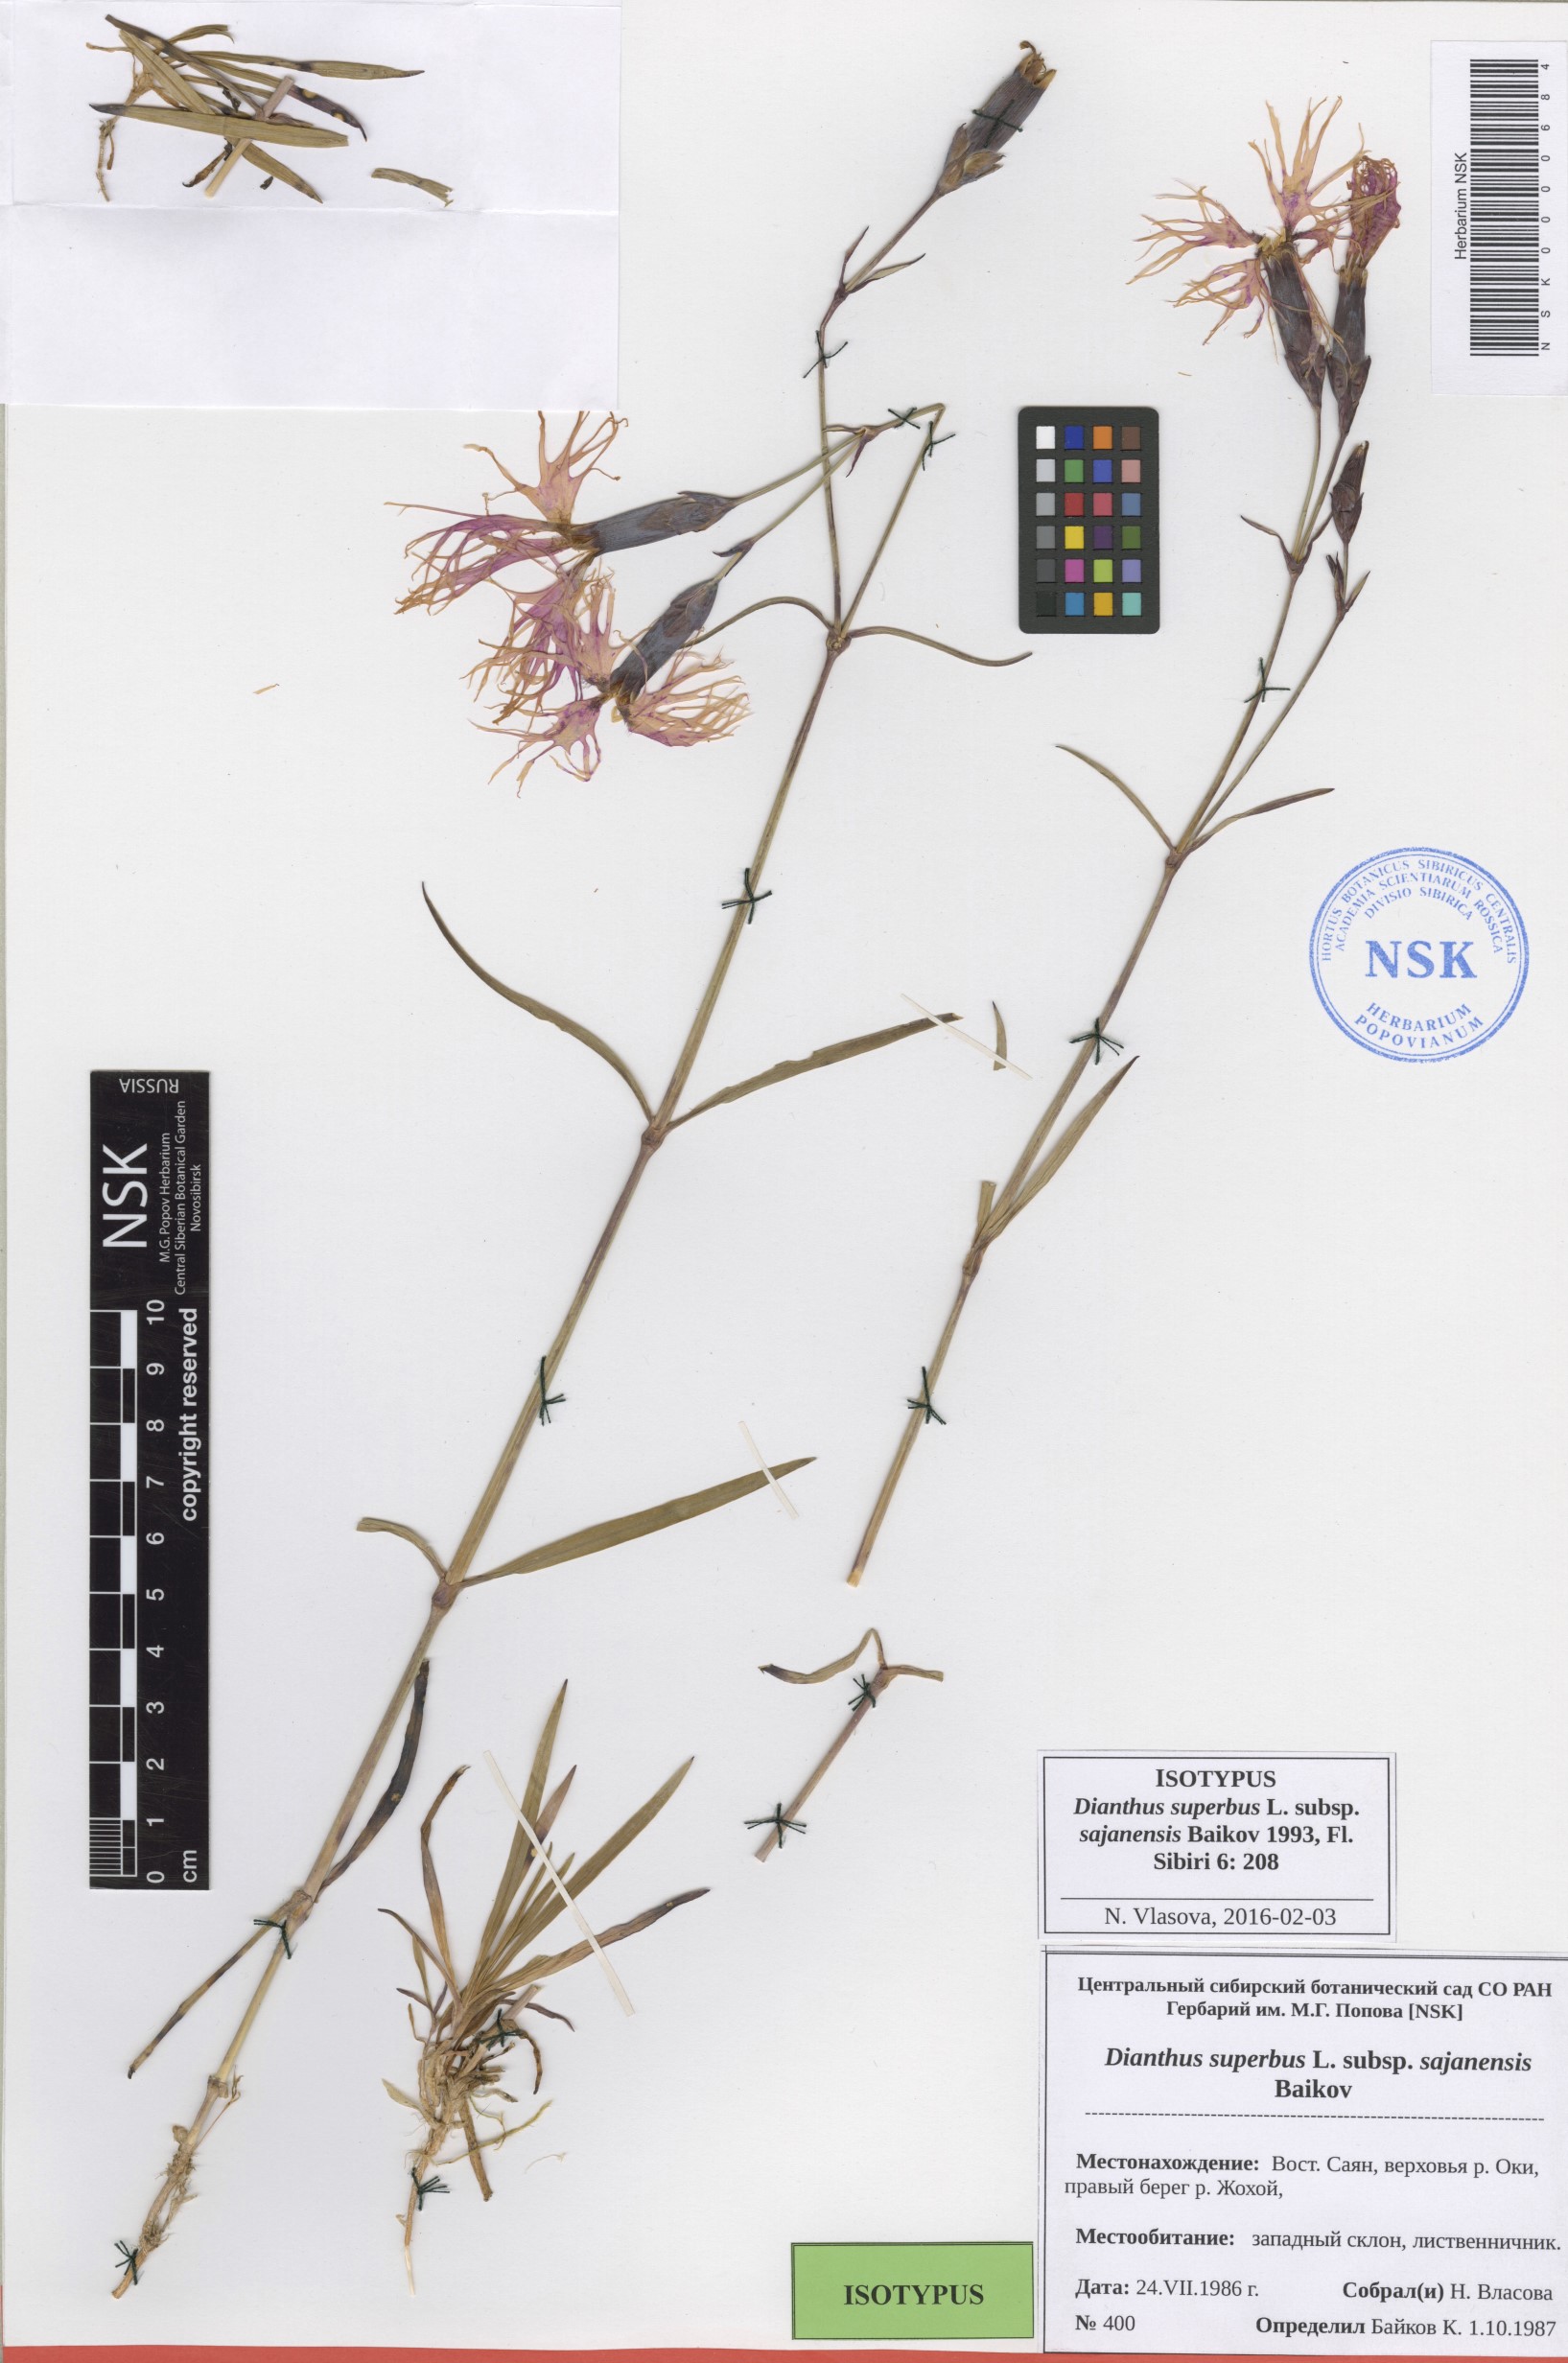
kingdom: Plantae
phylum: Tracheophyta
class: Magnoliopsida
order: Caryophyllales
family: Caryophyllaceae
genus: Dianthus
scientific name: Dianthus superbus
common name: Fringed pink
